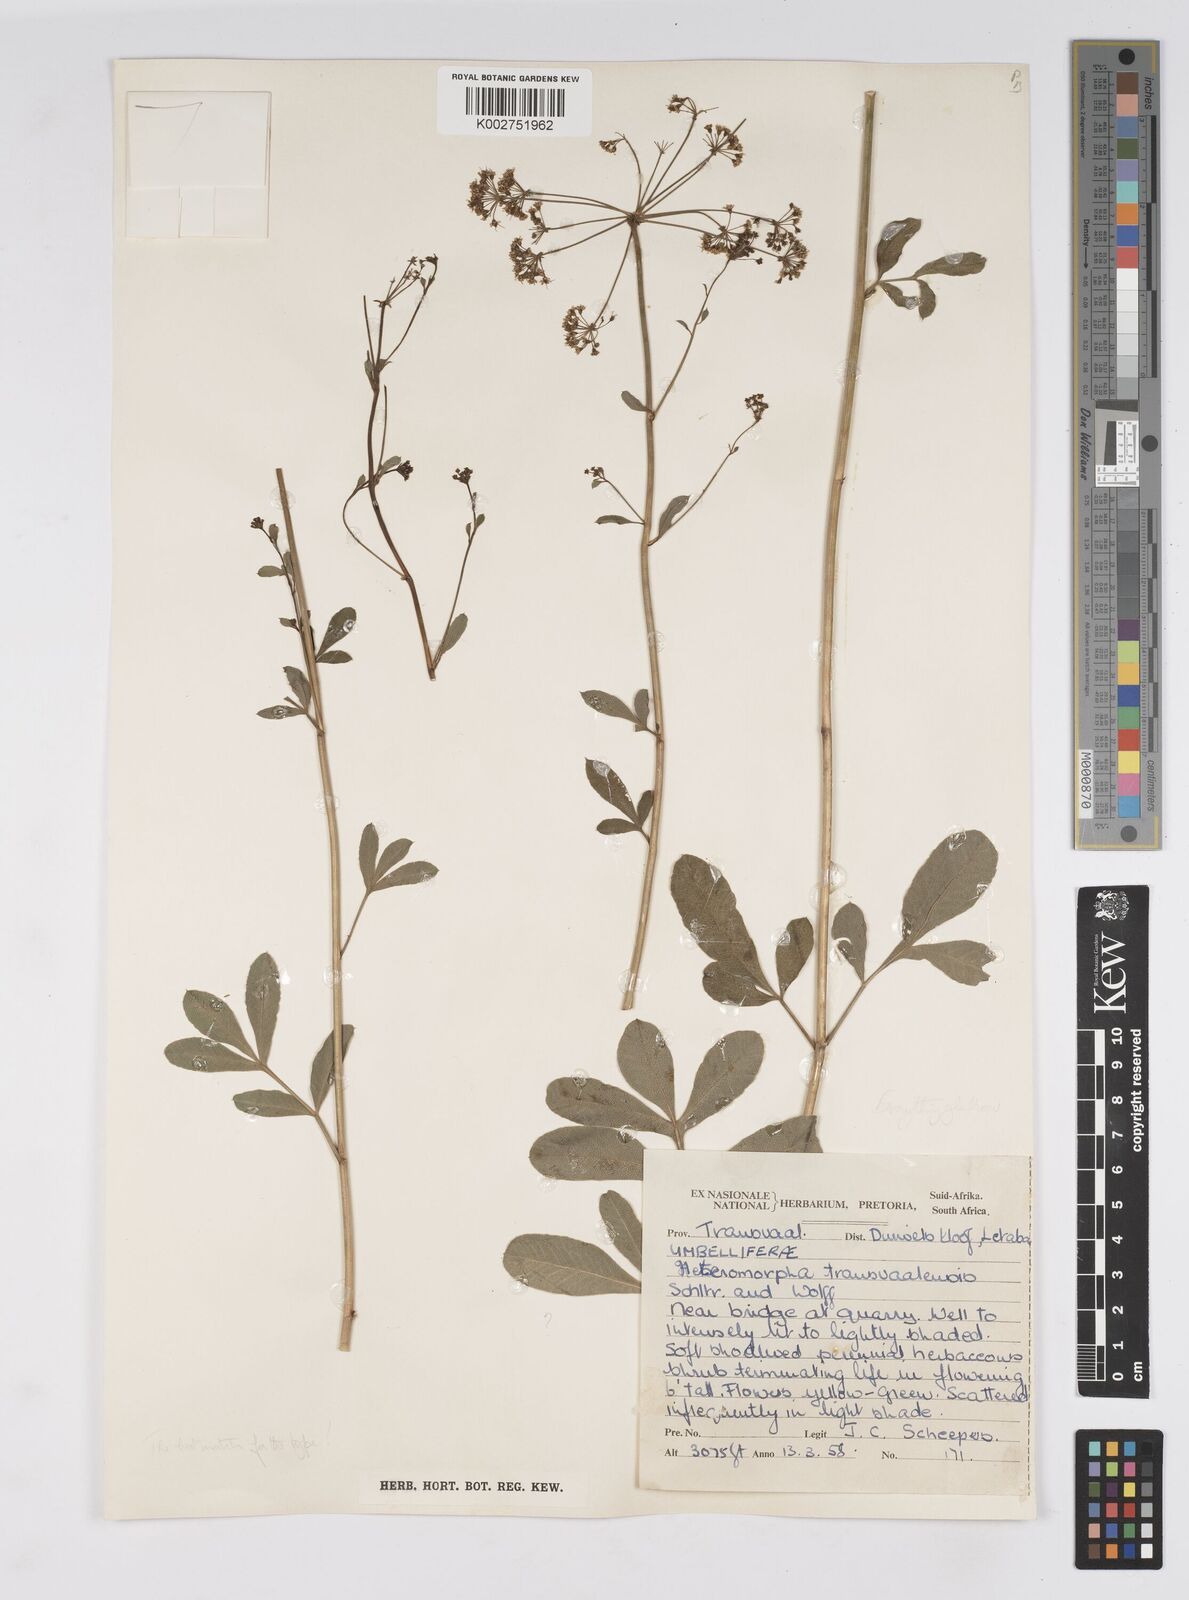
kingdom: Plantae
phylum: Tracheophyta
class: Magnoliopsida
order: Apiales
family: Apiaceae
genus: Heteromorpha
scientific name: Heteromorpha stenophylla
